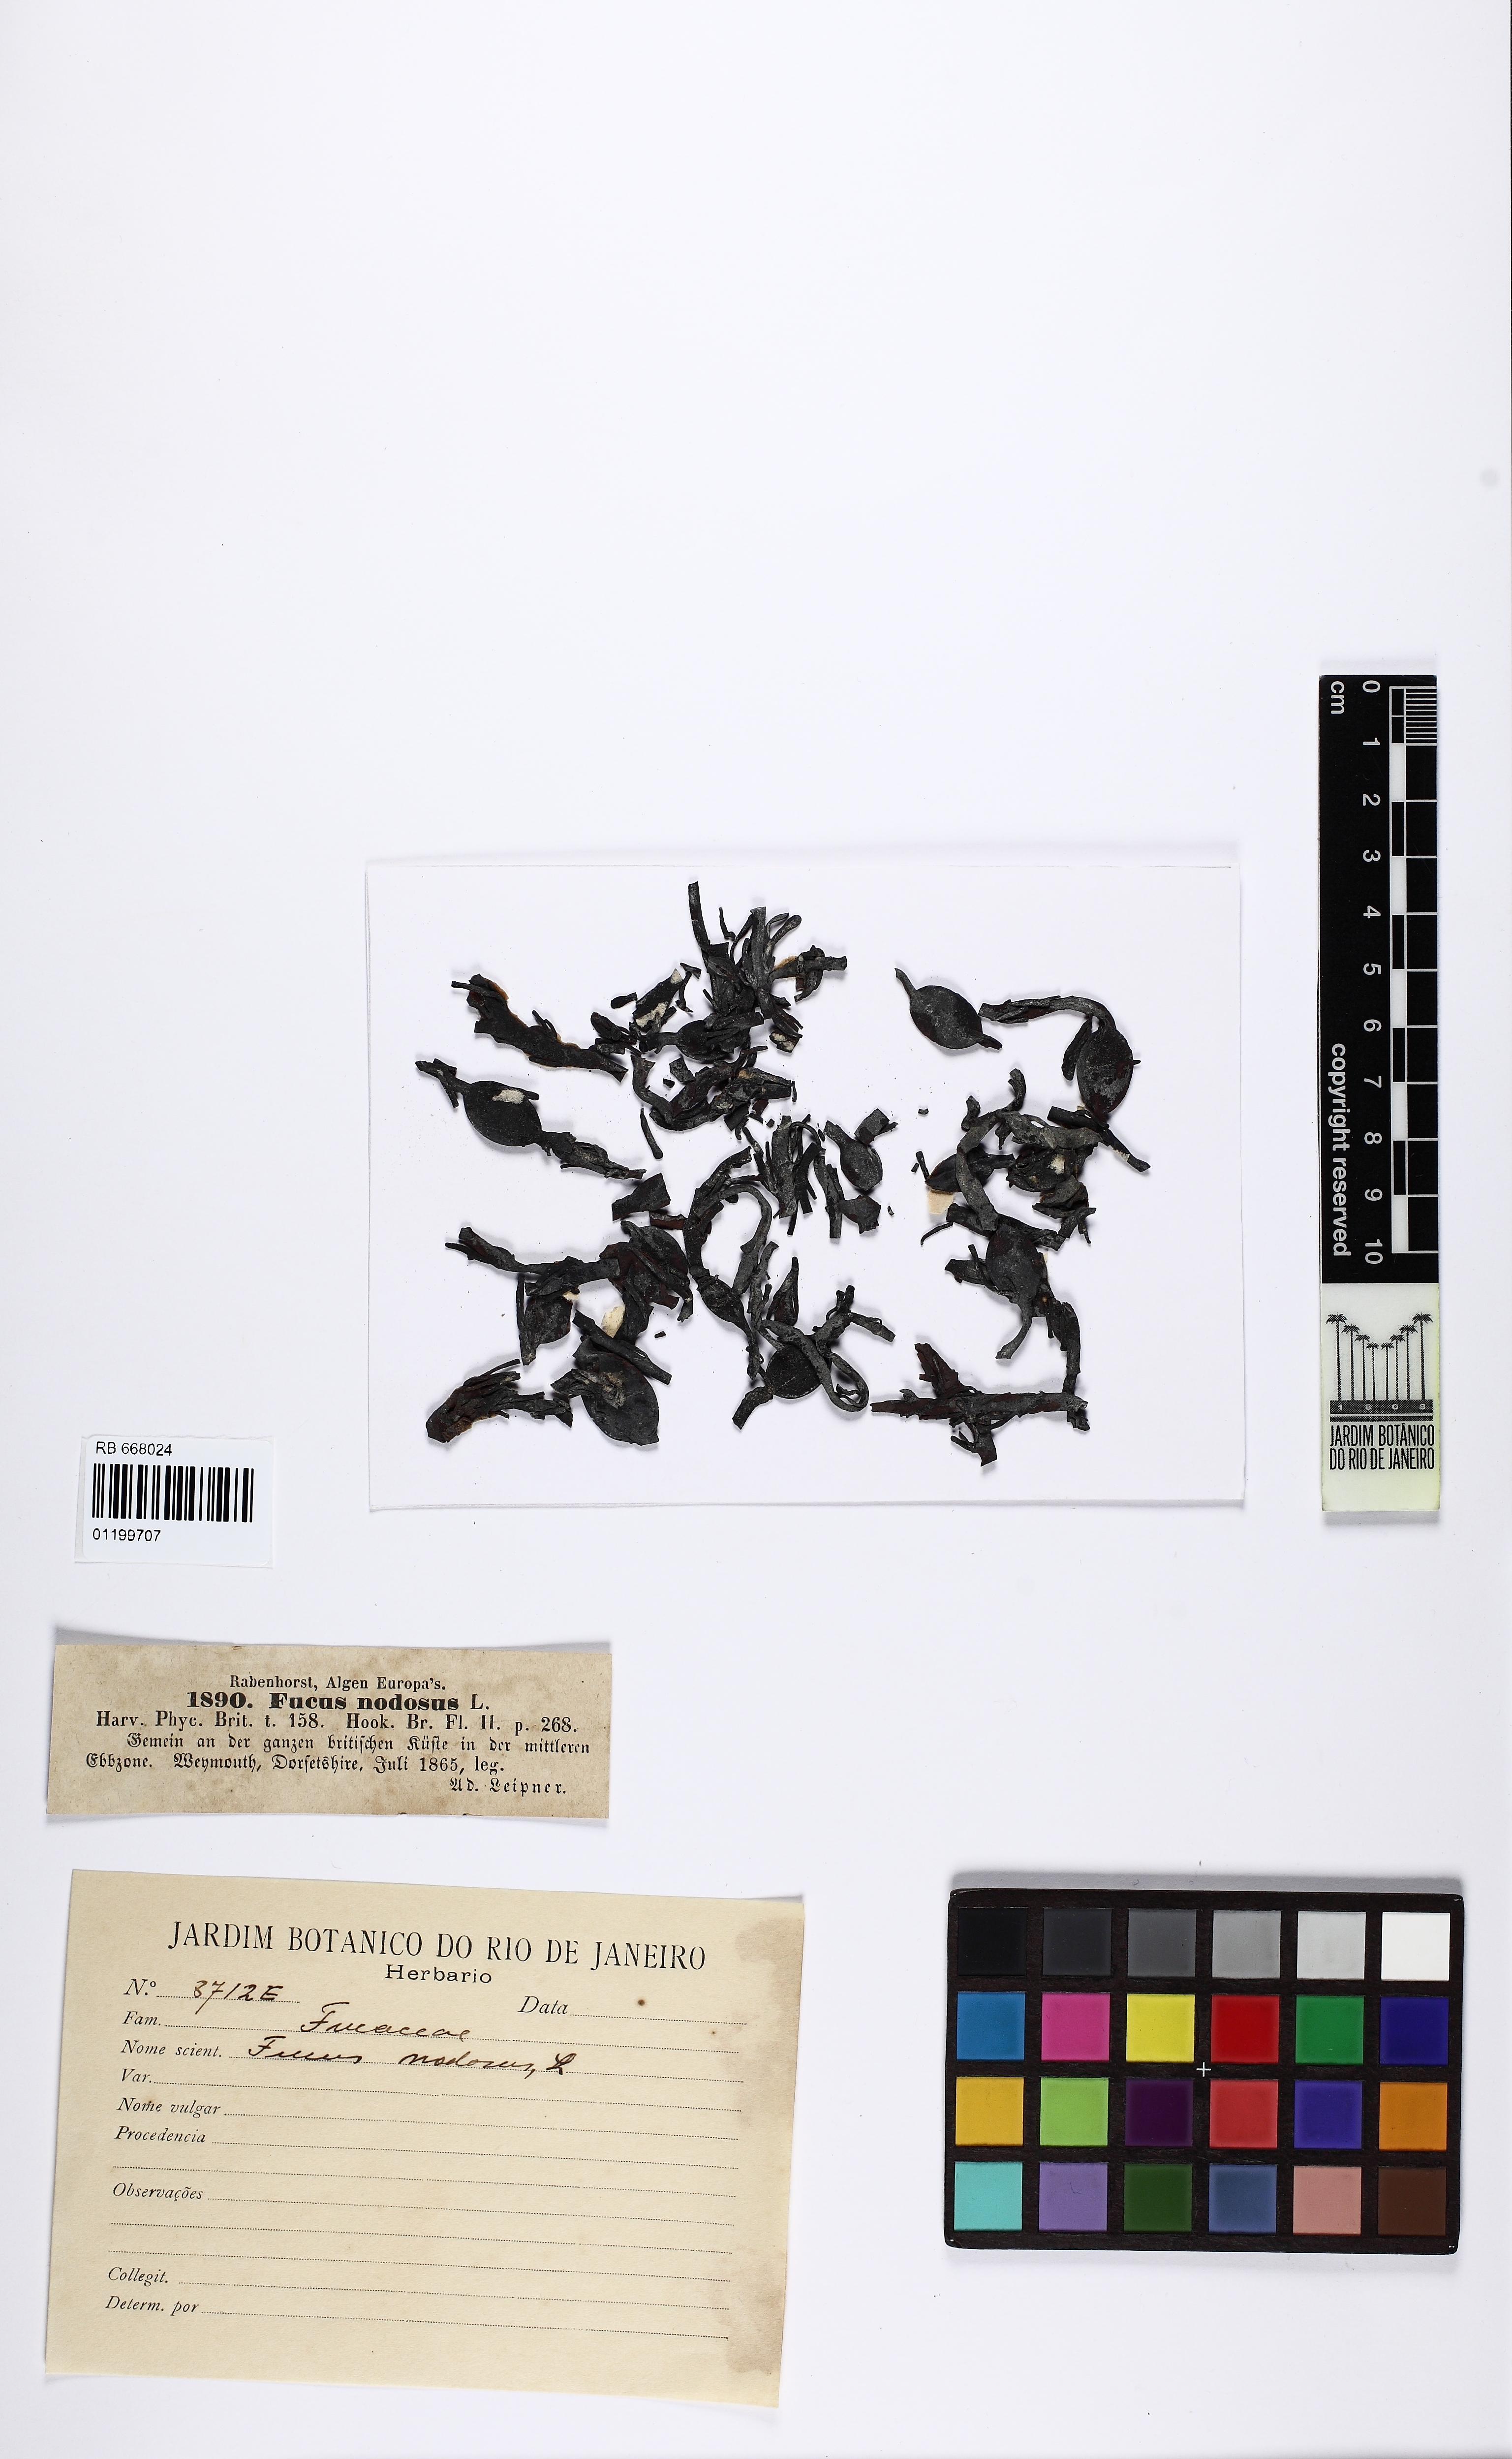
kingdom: Chromista
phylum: Ochrophyta
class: Phaeophyceae
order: Fucales
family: Fucaceae
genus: Ascophyllum
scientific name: Ascophyllum nodosum
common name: Knotted wrack
